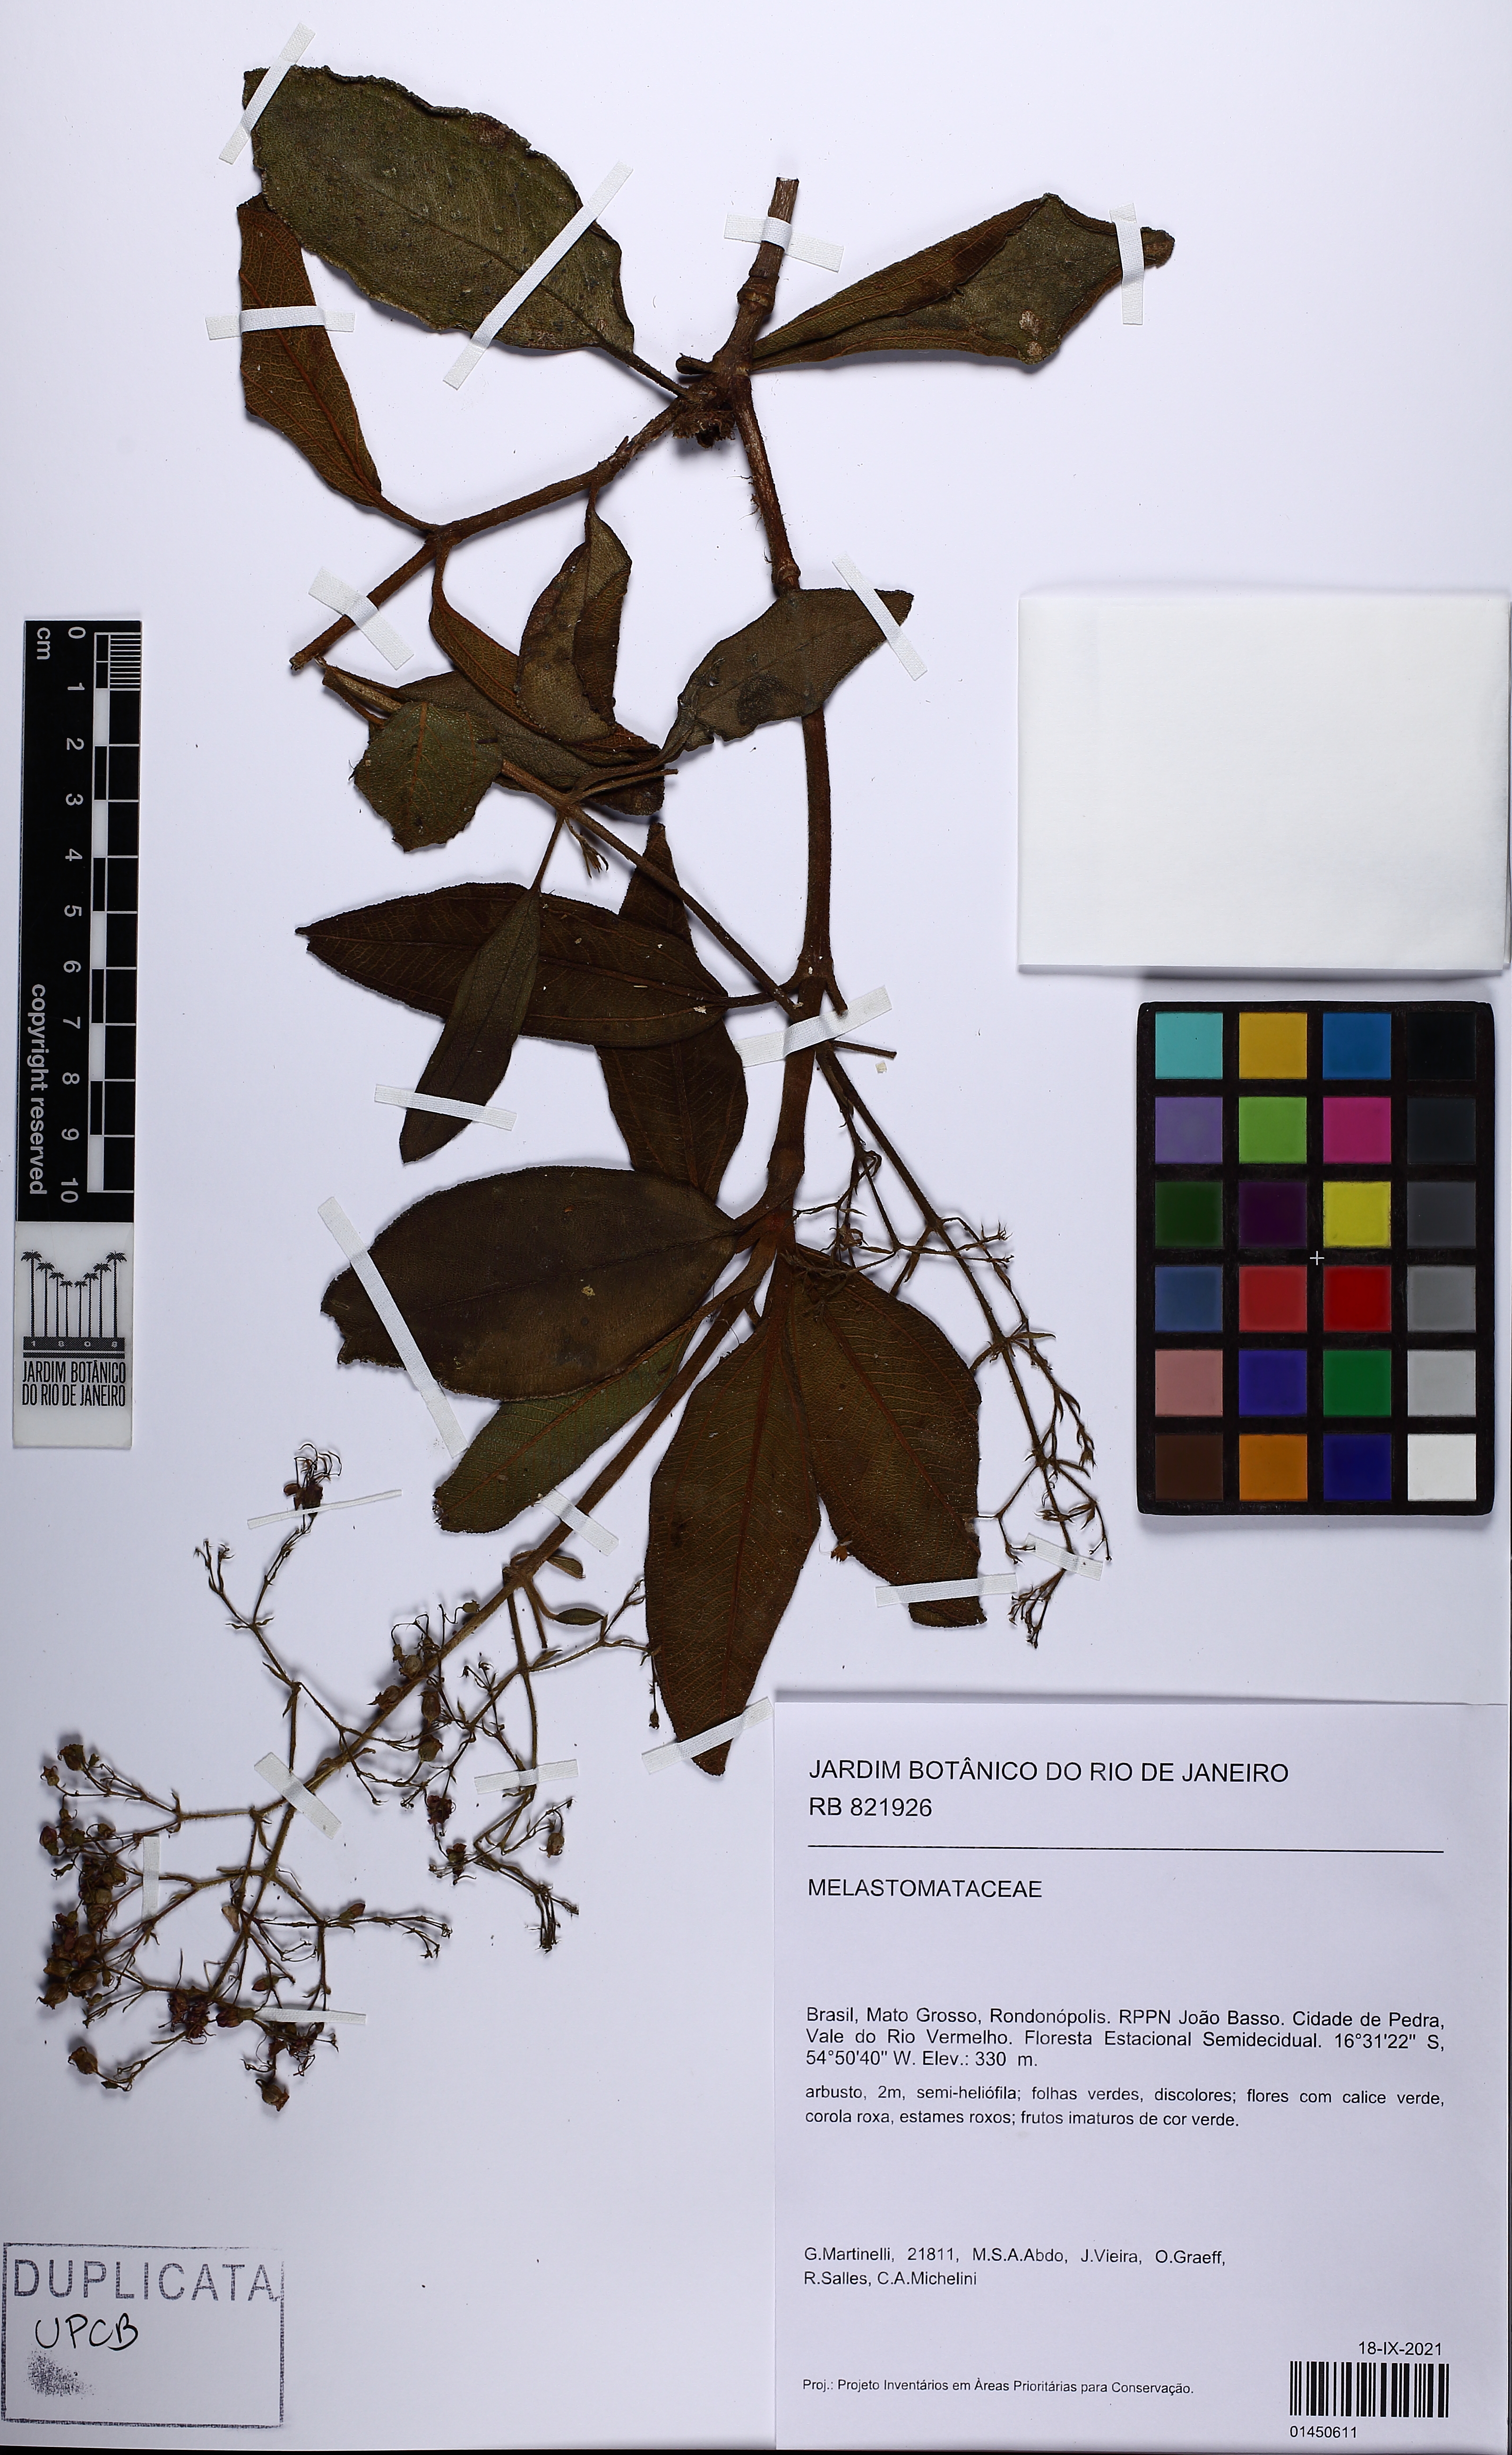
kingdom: Plantae
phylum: Tracheophyta
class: Magnoliopsida
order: Myrtales
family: Melastomataceae
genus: Macairea
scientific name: Macairea radula
